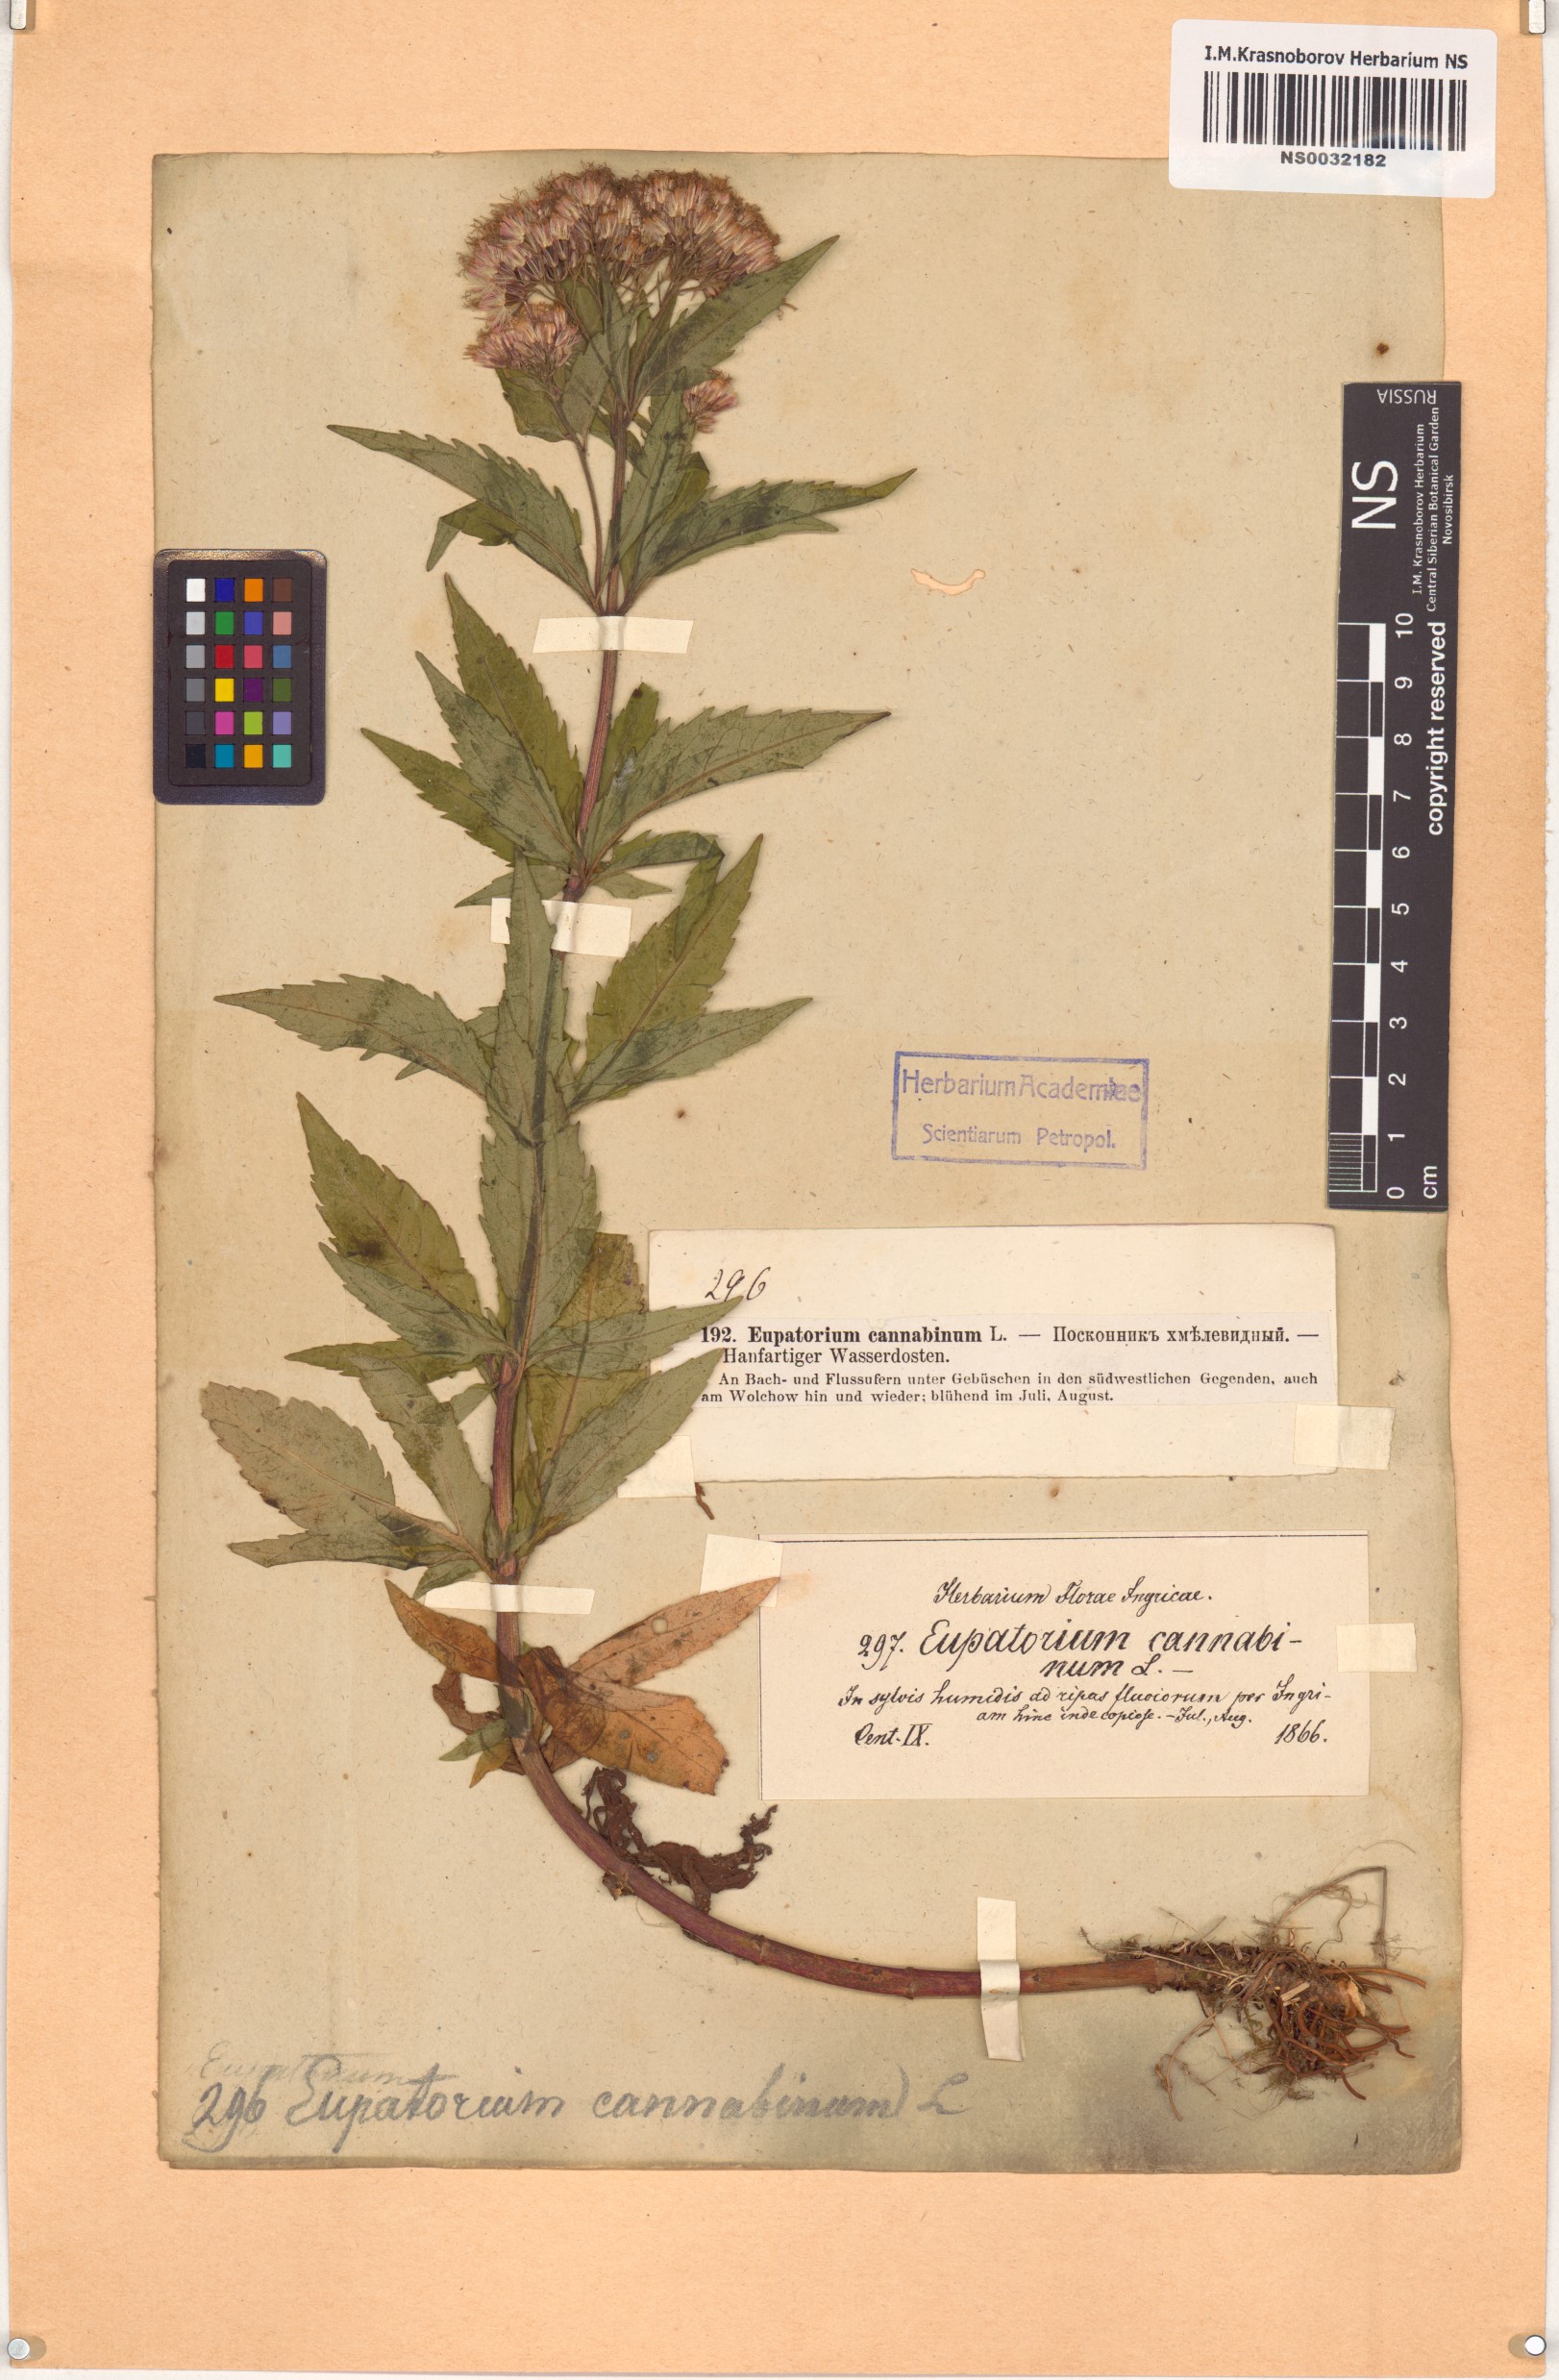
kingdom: Plantae
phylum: Tracheophyta
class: Magnoliopsida
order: Asterales
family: Asteraceae
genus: Eupatorium
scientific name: Eupatorium cannabinum
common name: Hemp-agrimony
